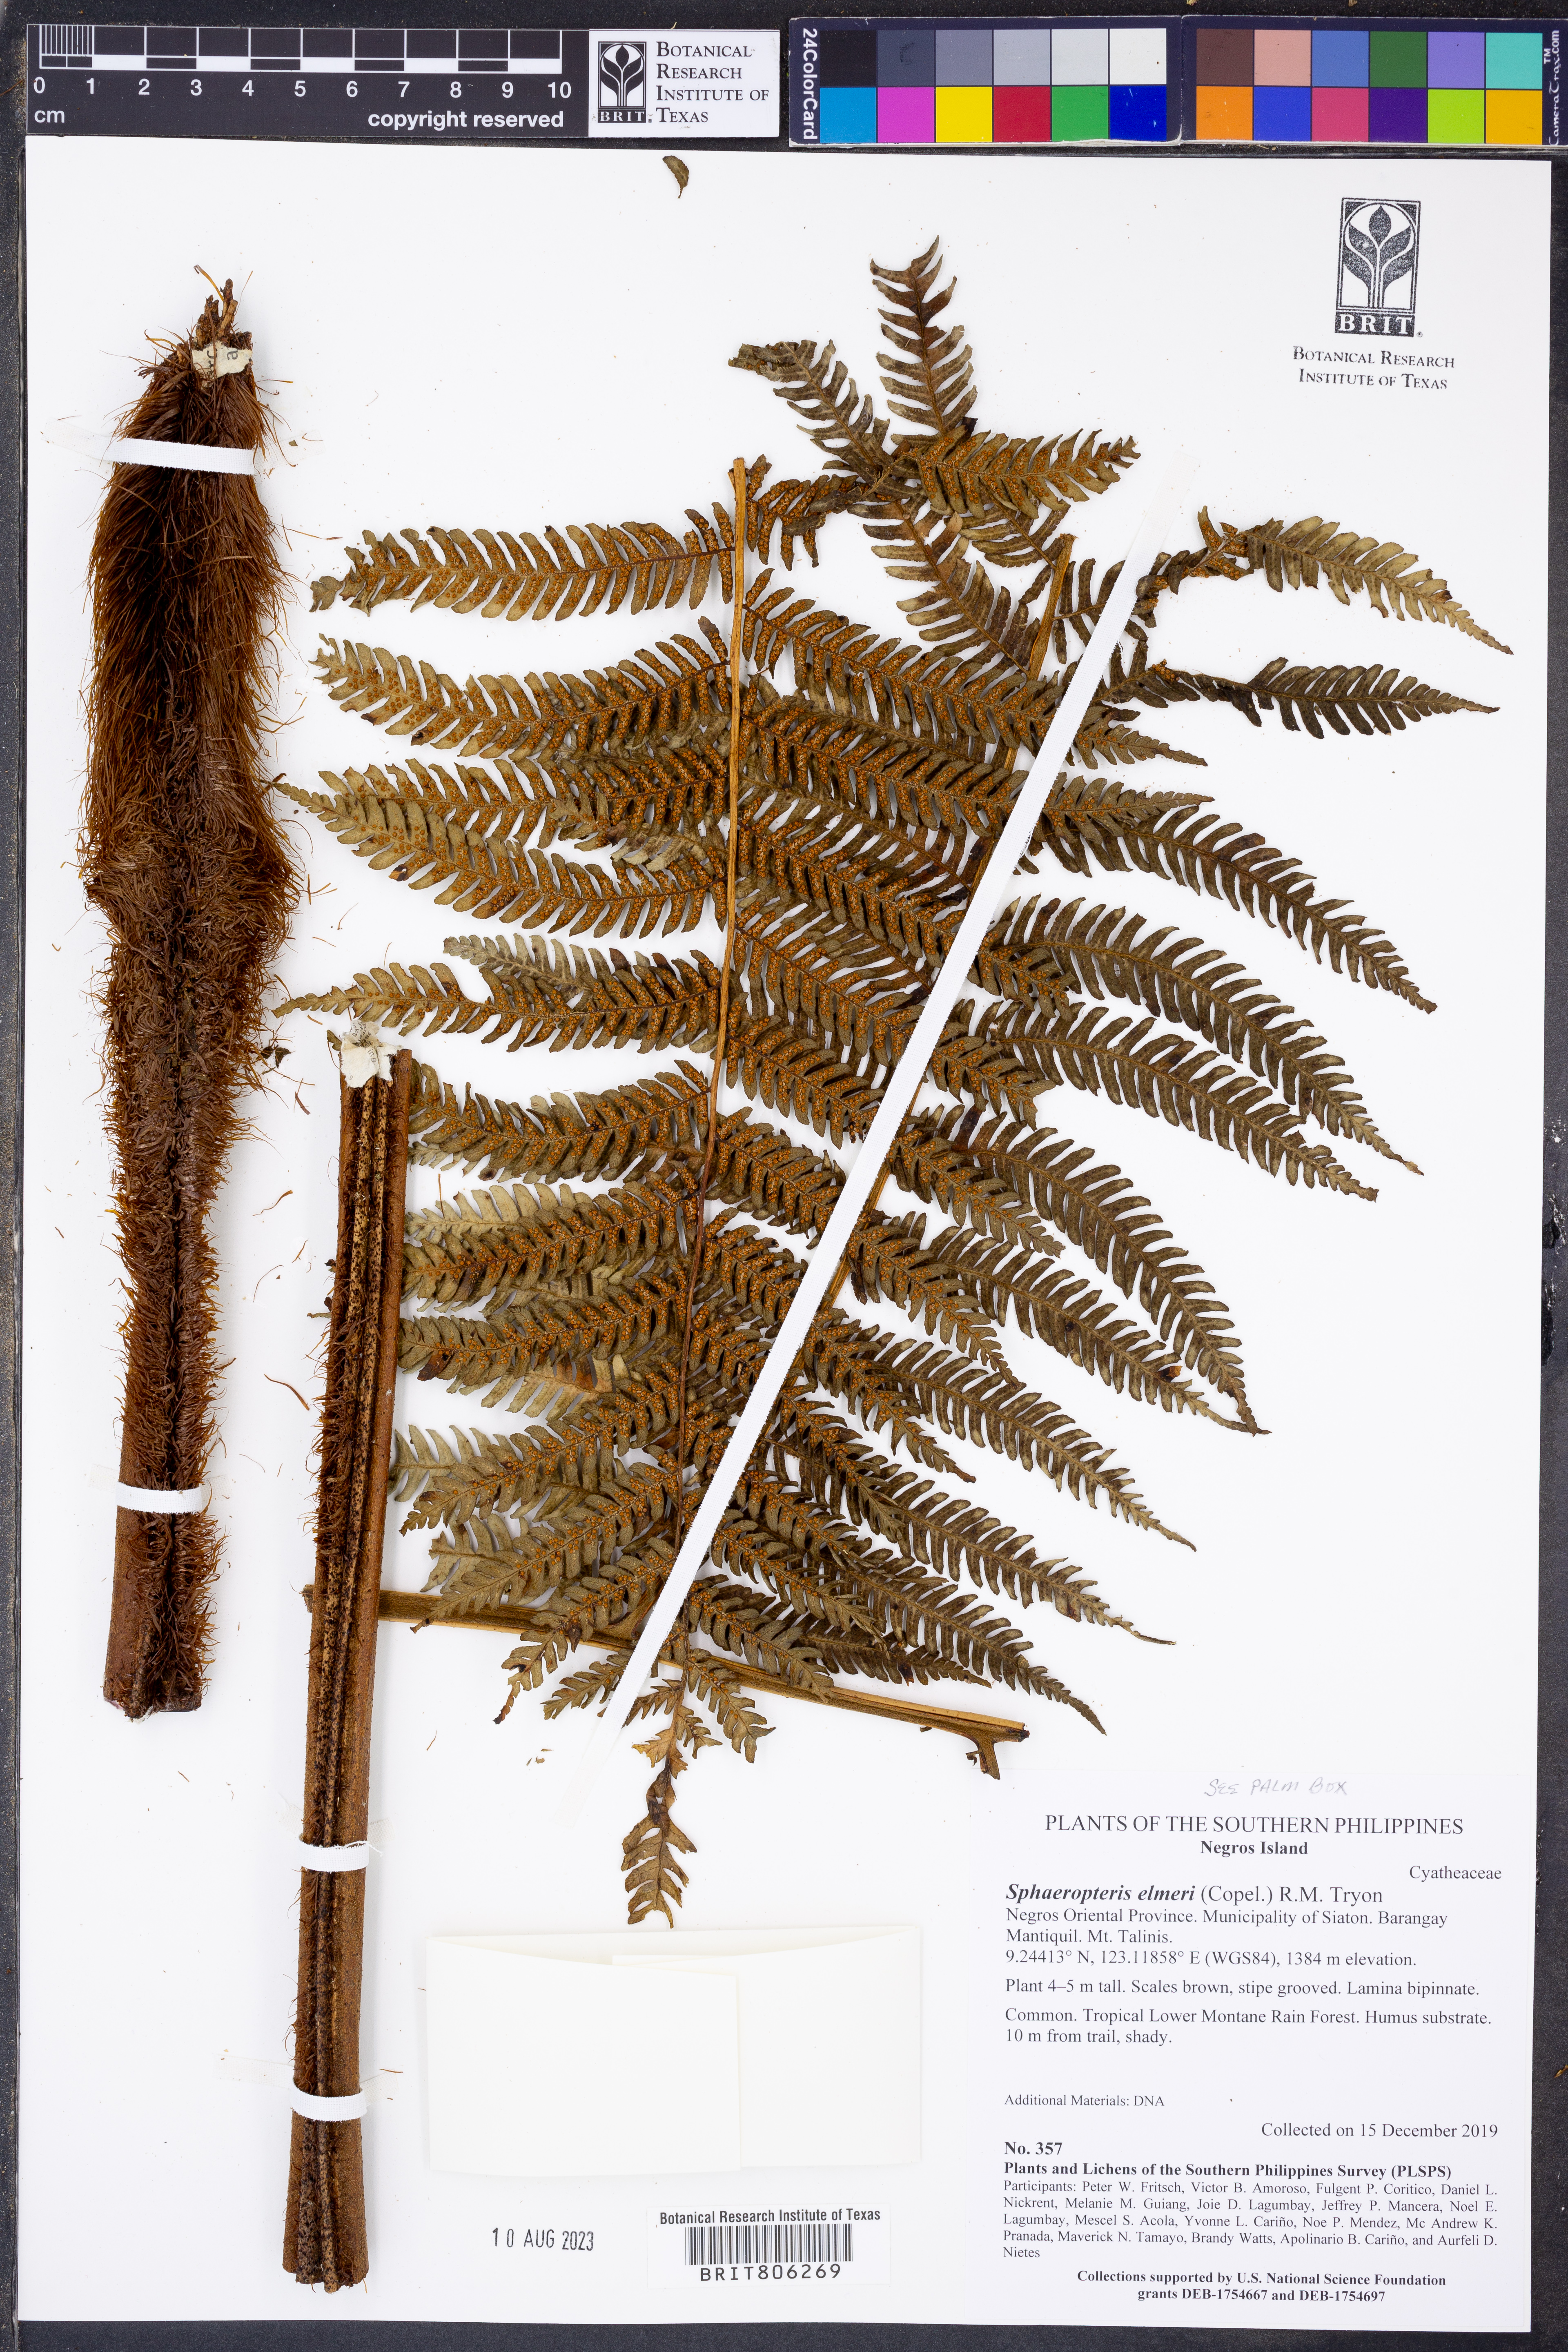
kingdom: Plantae
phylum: Tracheophyta
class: Polypodiopsida
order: Cyatheales
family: Cyatheaceae
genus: Sphaeropteris
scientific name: Sphaeropteris elmeri
